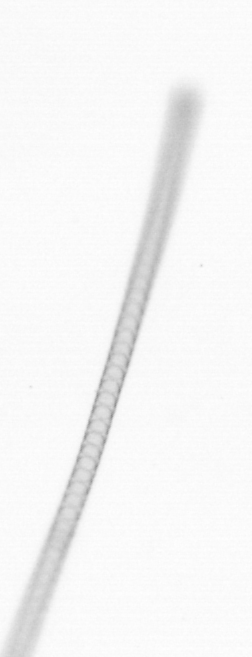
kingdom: Chromista
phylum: Ochrophyta
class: Bacillariophyceae
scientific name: Bacillariophyceae
